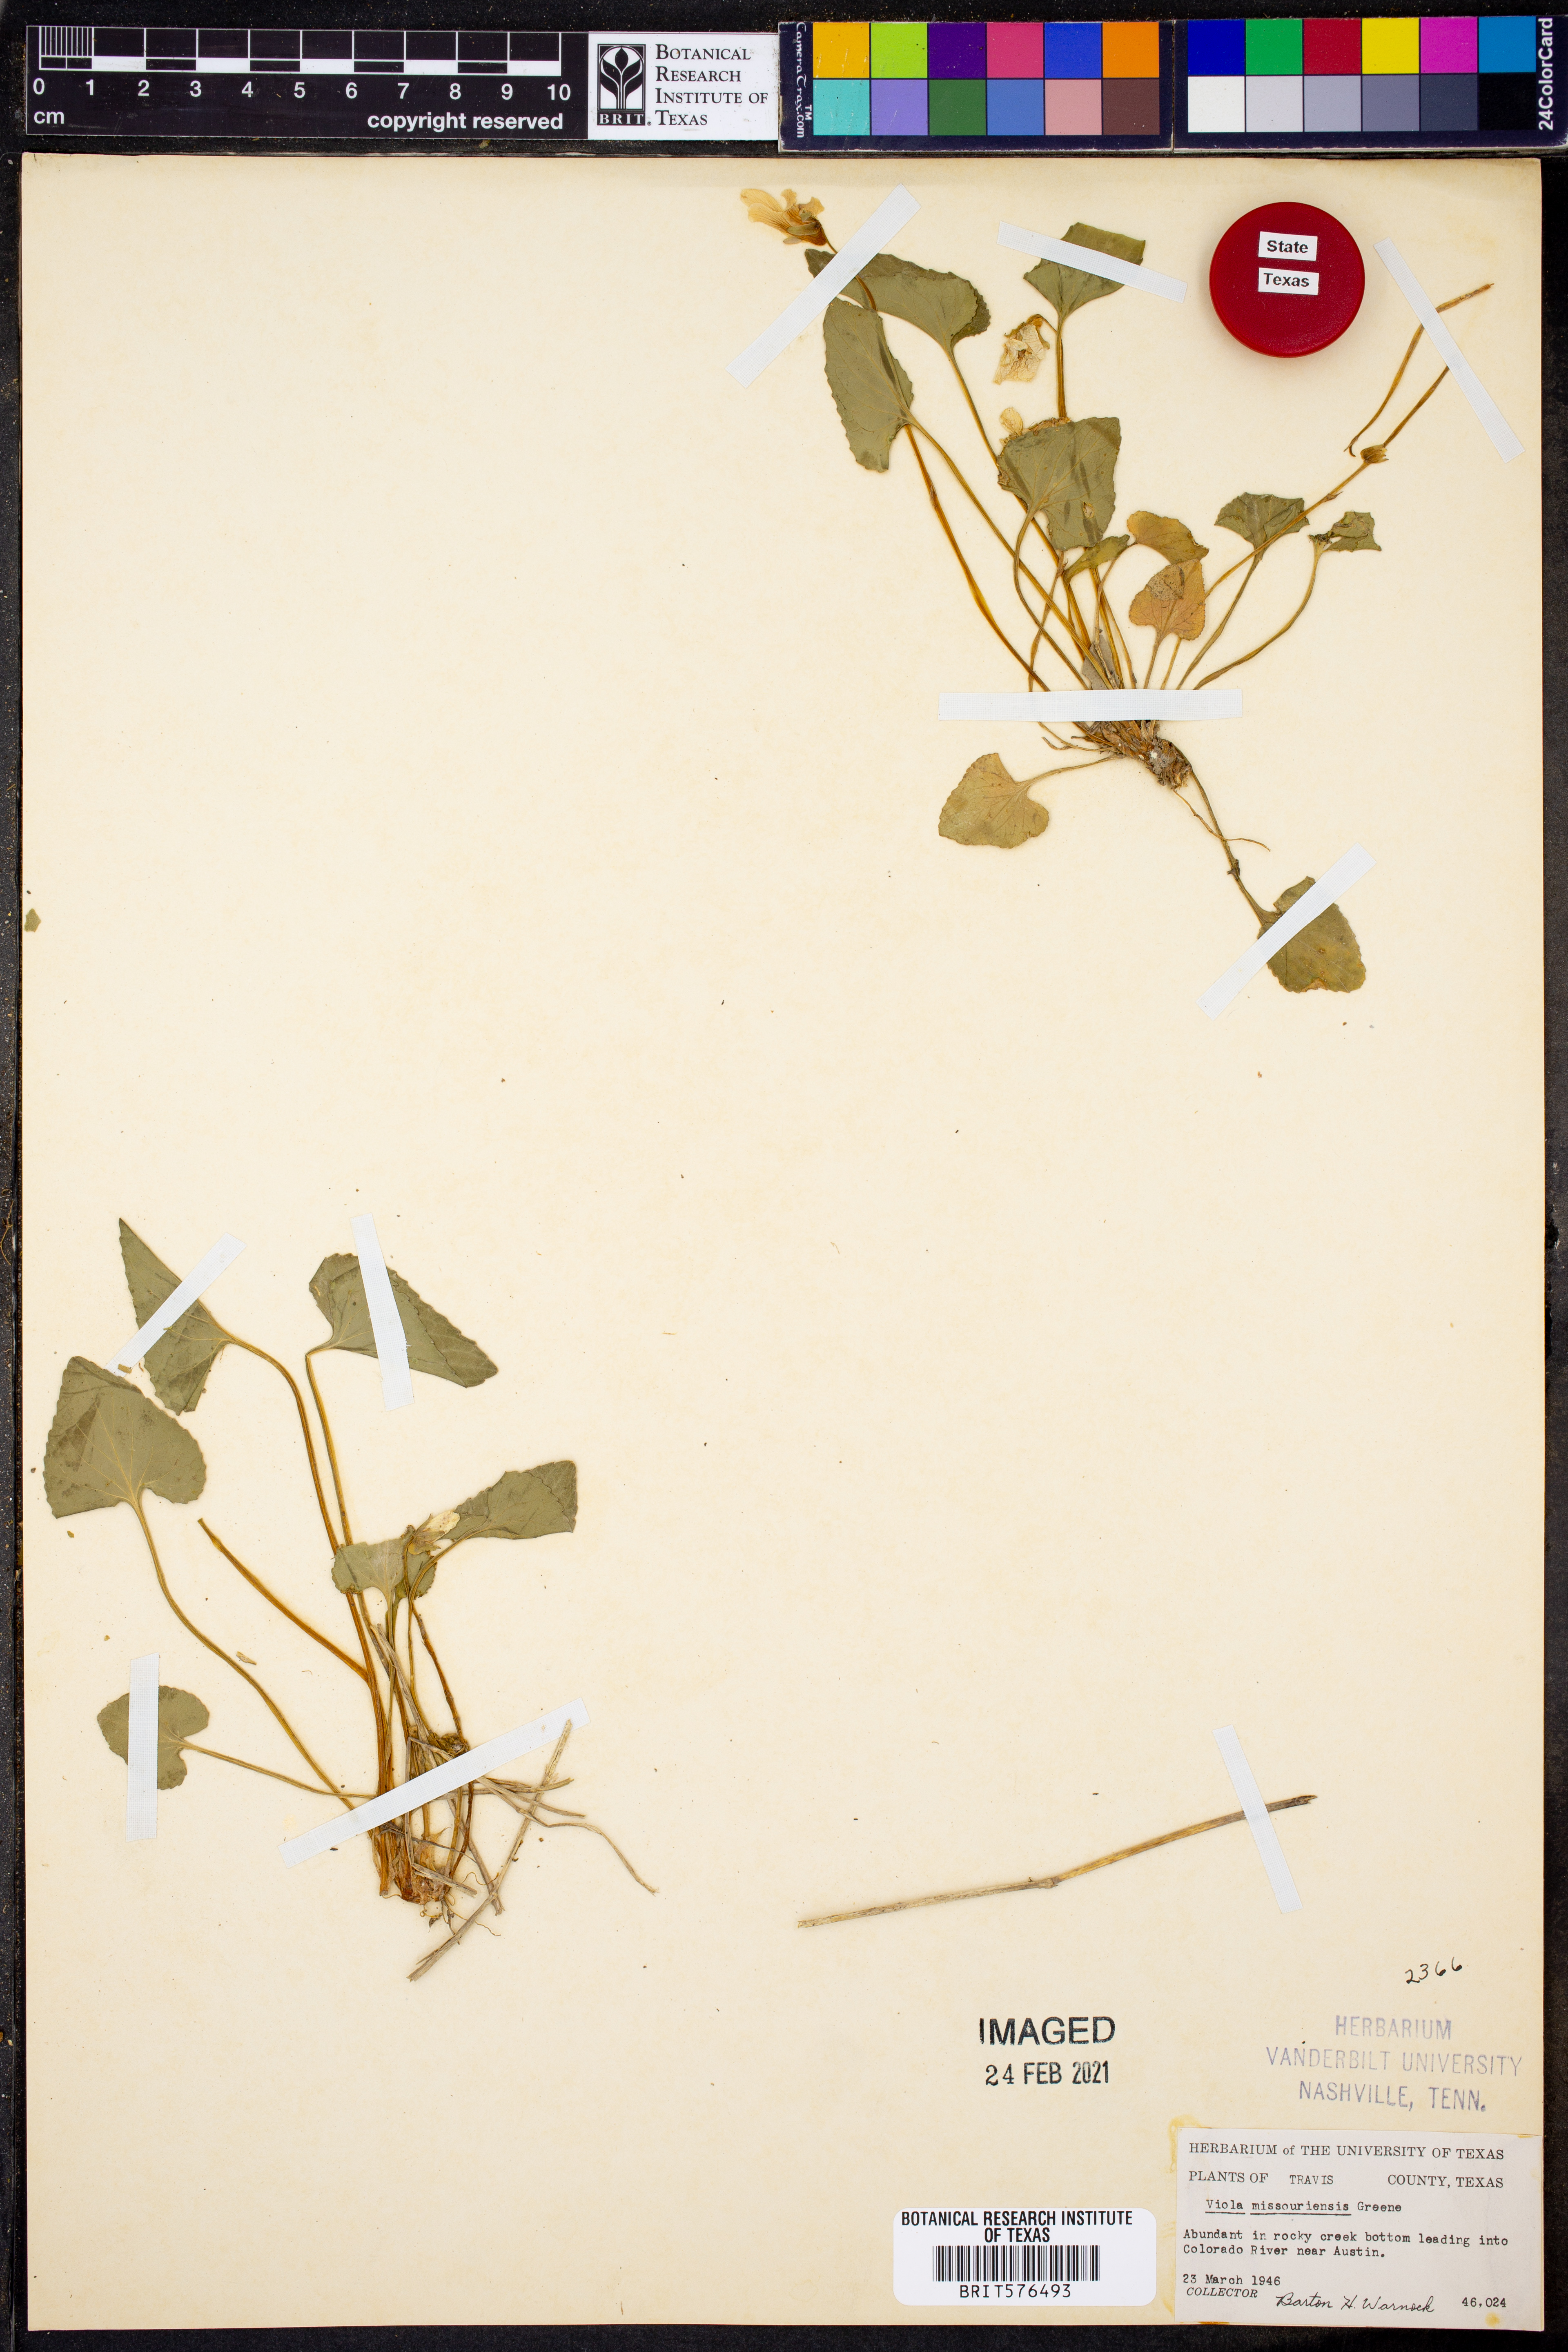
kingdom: Plantae
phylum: Tracheophyta
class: Magnoliopsida
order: Malpighiales
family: Violaceae
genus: Viola
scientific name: Viola missouriensis
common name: Missouri violet
